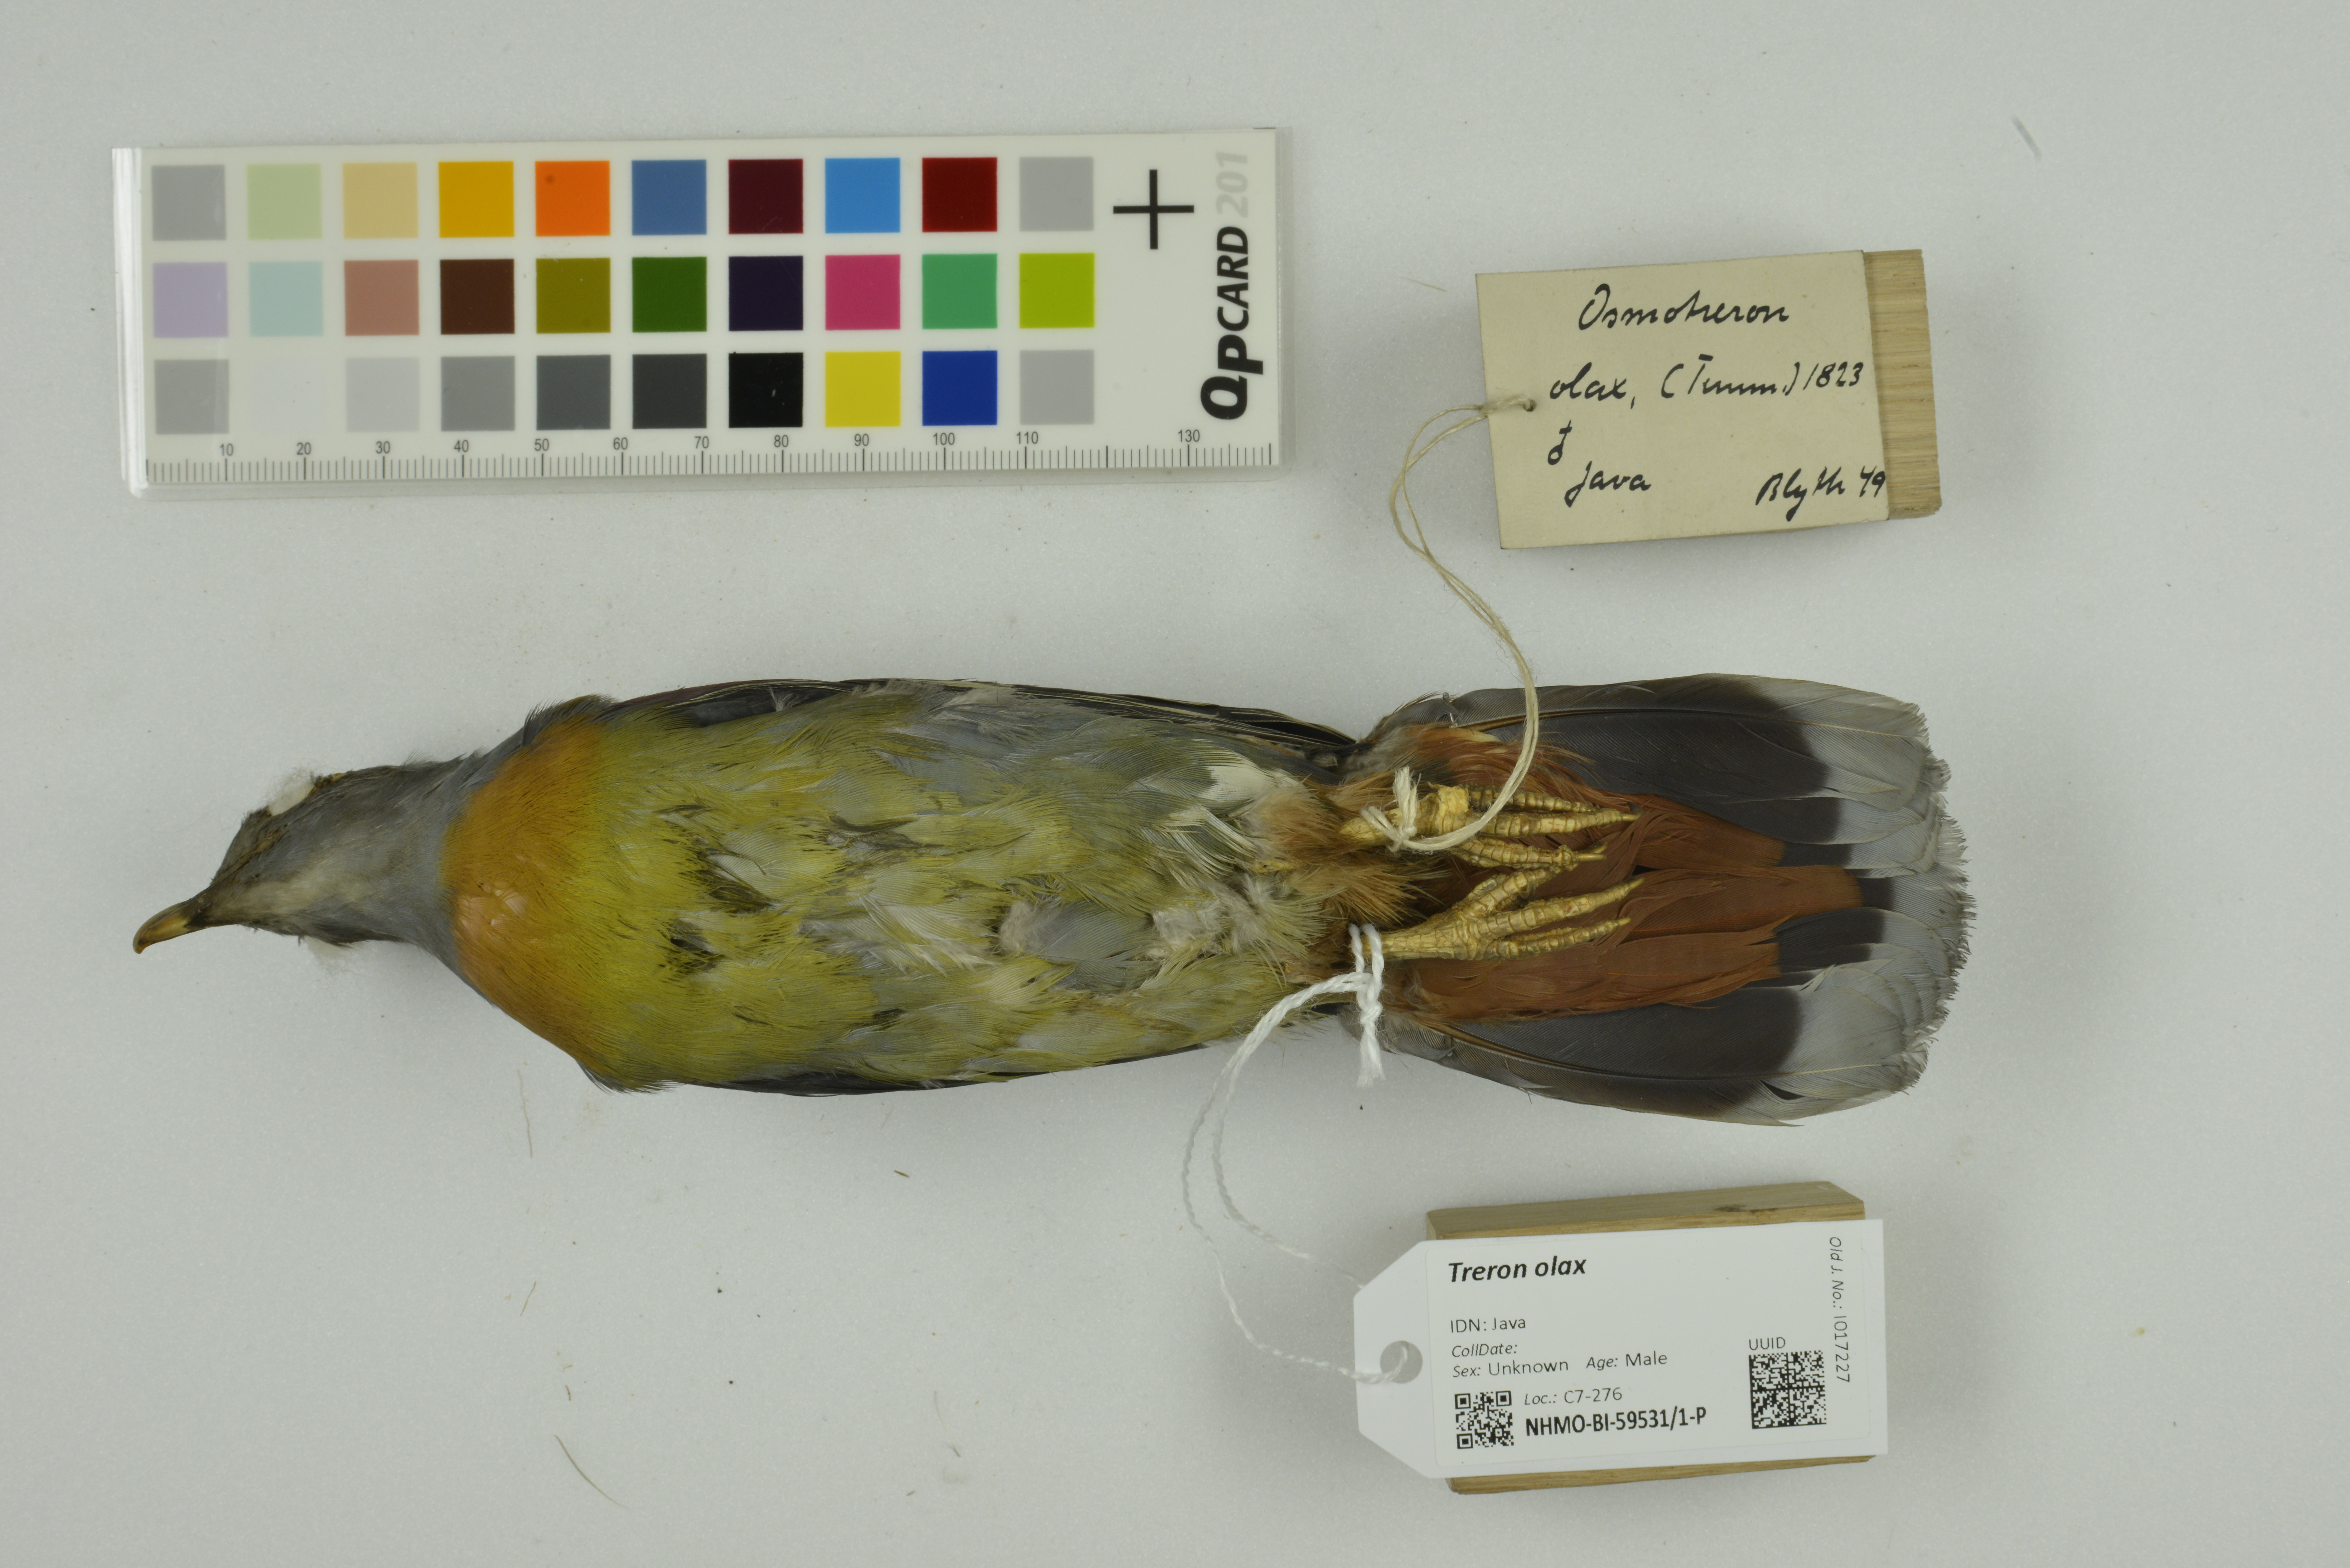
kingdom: Animalia
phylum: Chordata
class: Aves
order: Columbiformes
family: Columbidae
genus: Treron
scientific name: Treron olax
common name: Little green pigeon
